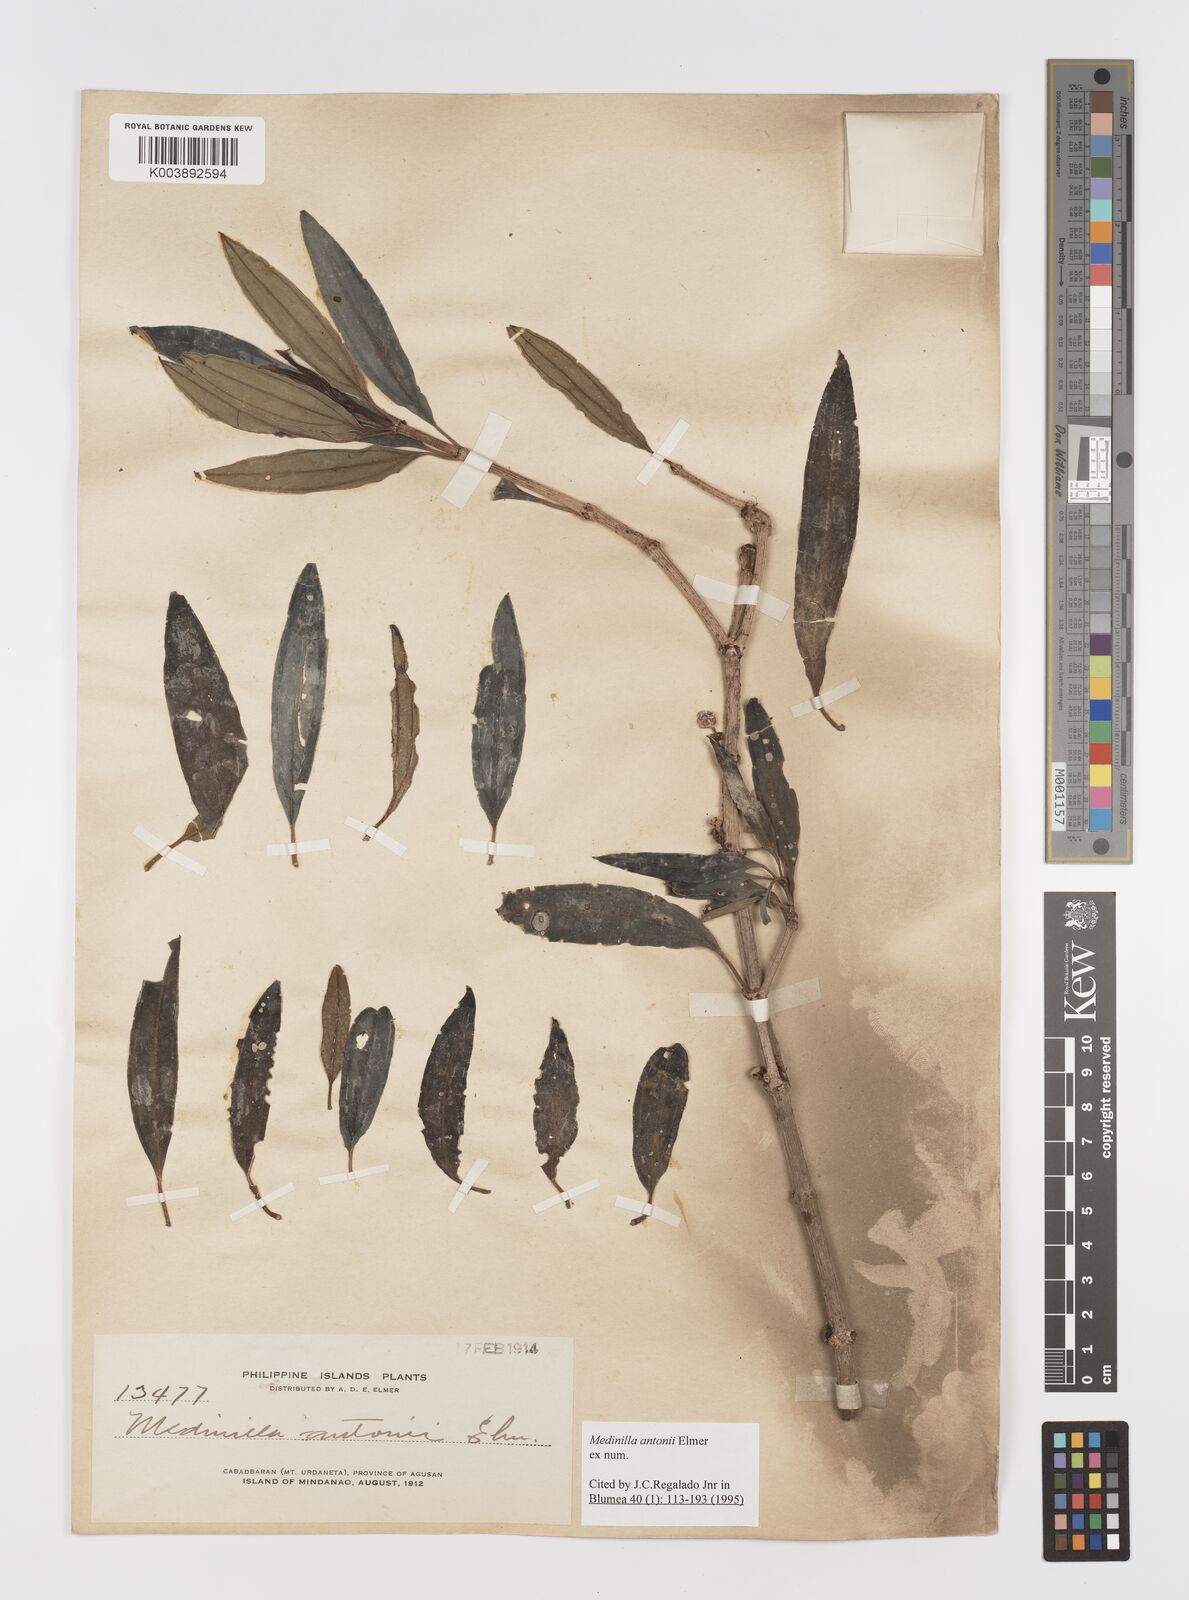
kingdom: Plantae
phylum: Tracheophyta
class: Magnoliopsida
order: Myrtales
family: Melastomataceae
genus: Medinilla
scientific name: Medinilla antonii
